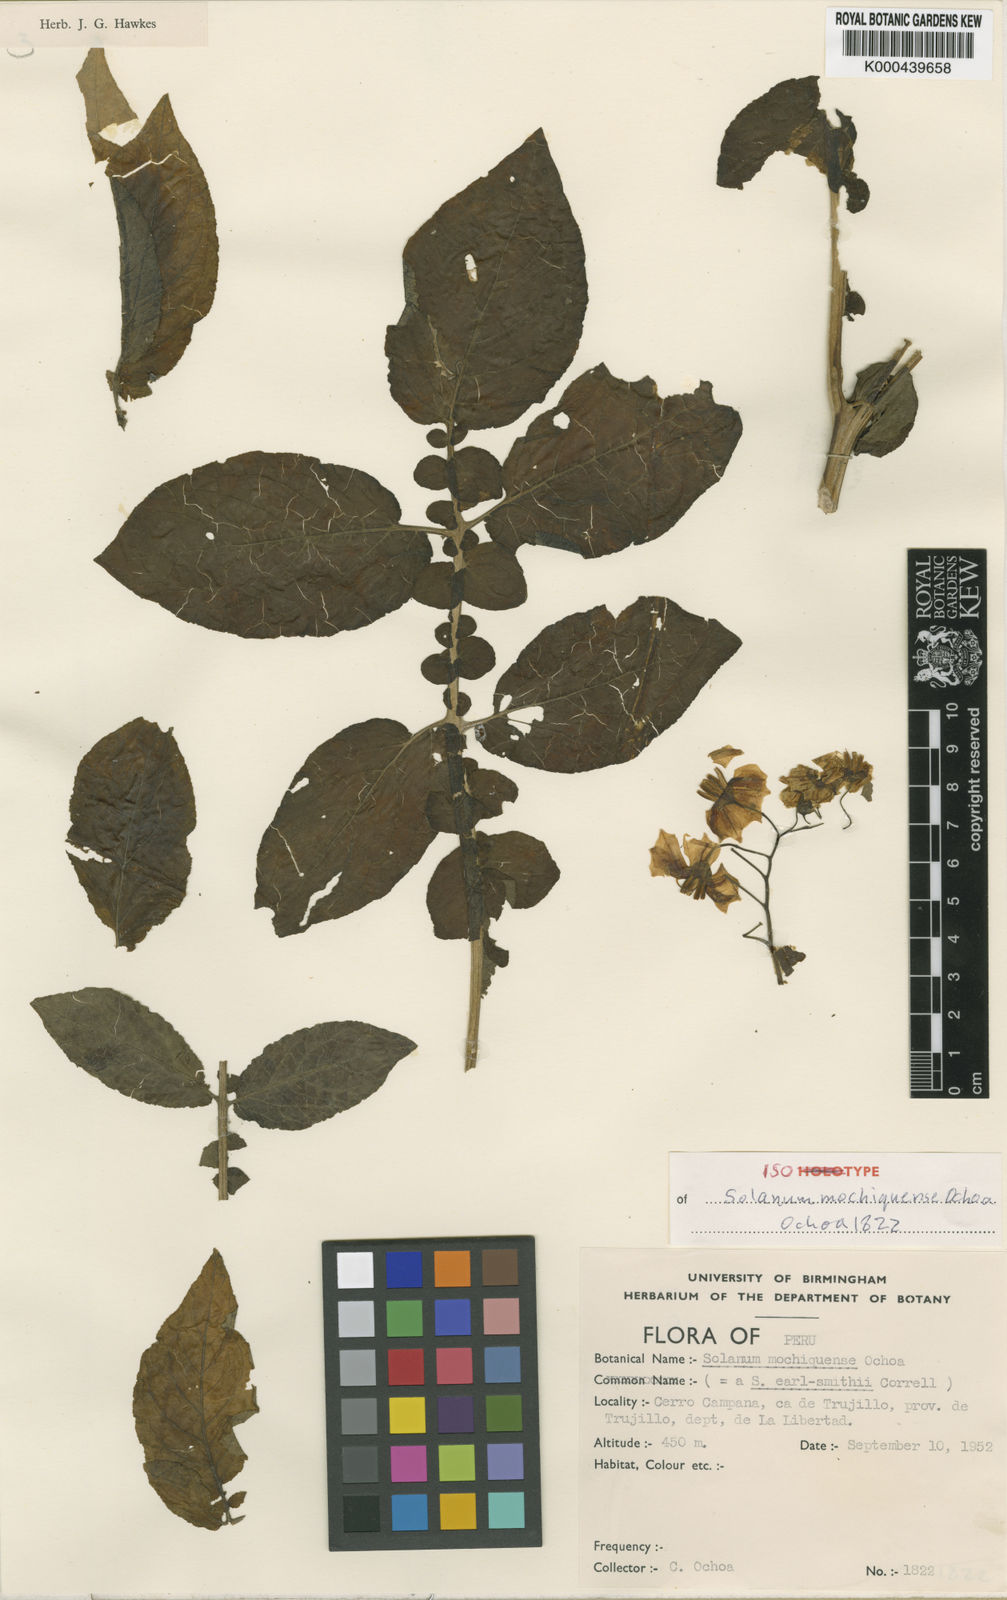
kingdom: Plantae
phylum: Tracheophyta
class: Magnoliopsida
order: Solanales
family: Solanaceae
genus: Solanum
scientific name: Solanum mochiquense
